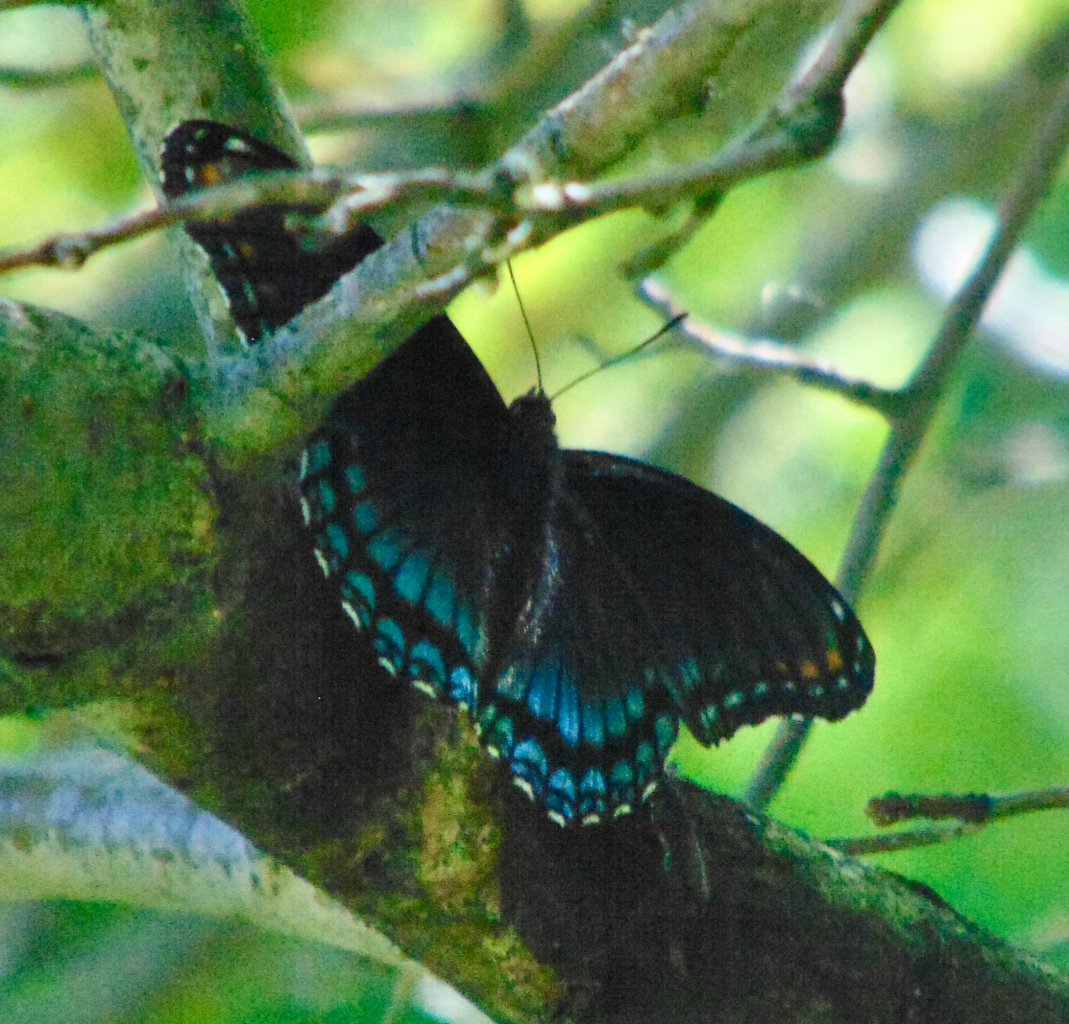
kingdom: Animalia
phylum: Arthropoda
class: Insecta
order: Lepidoptera
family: Nymphalidae
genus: Limenitis
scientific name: Limenitis astyanax
